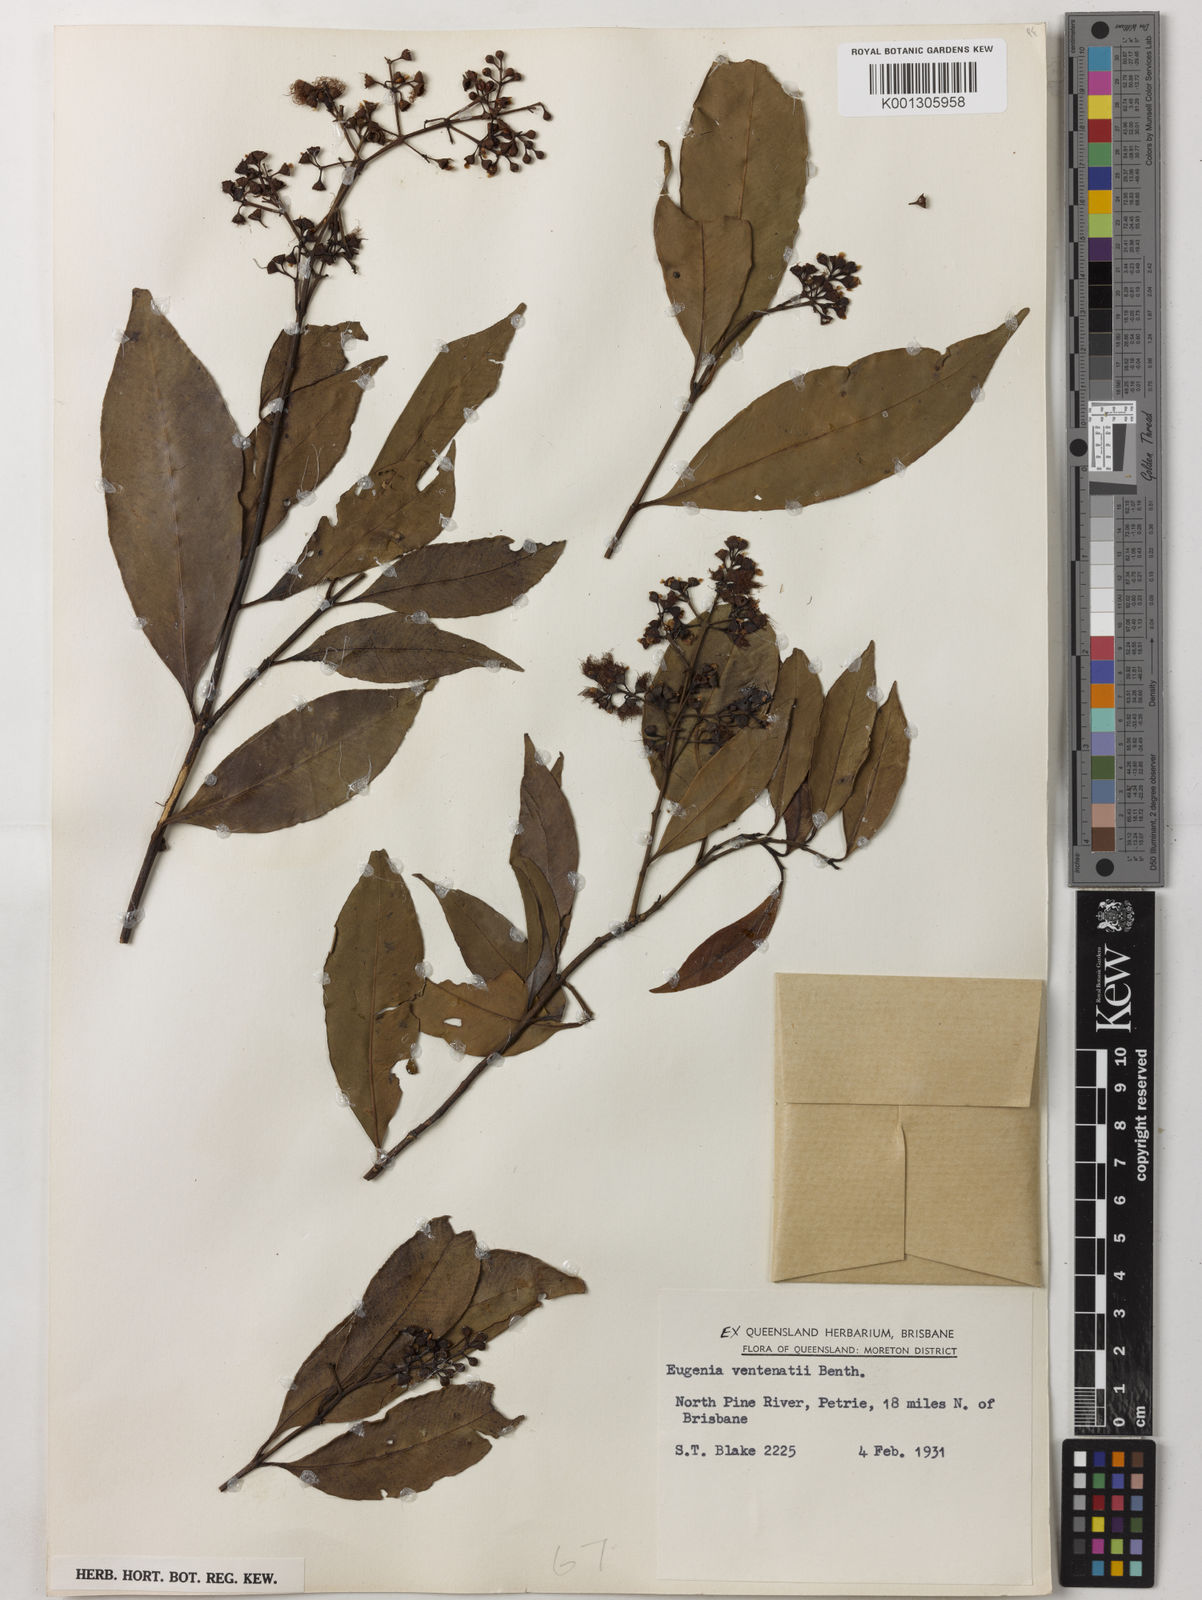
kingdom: Plantae
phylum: Tracheophyta
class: Magnoliopsida
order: Myrtales
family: Myrtaceae
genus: Syzygium
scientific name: Syzygium floribundum
